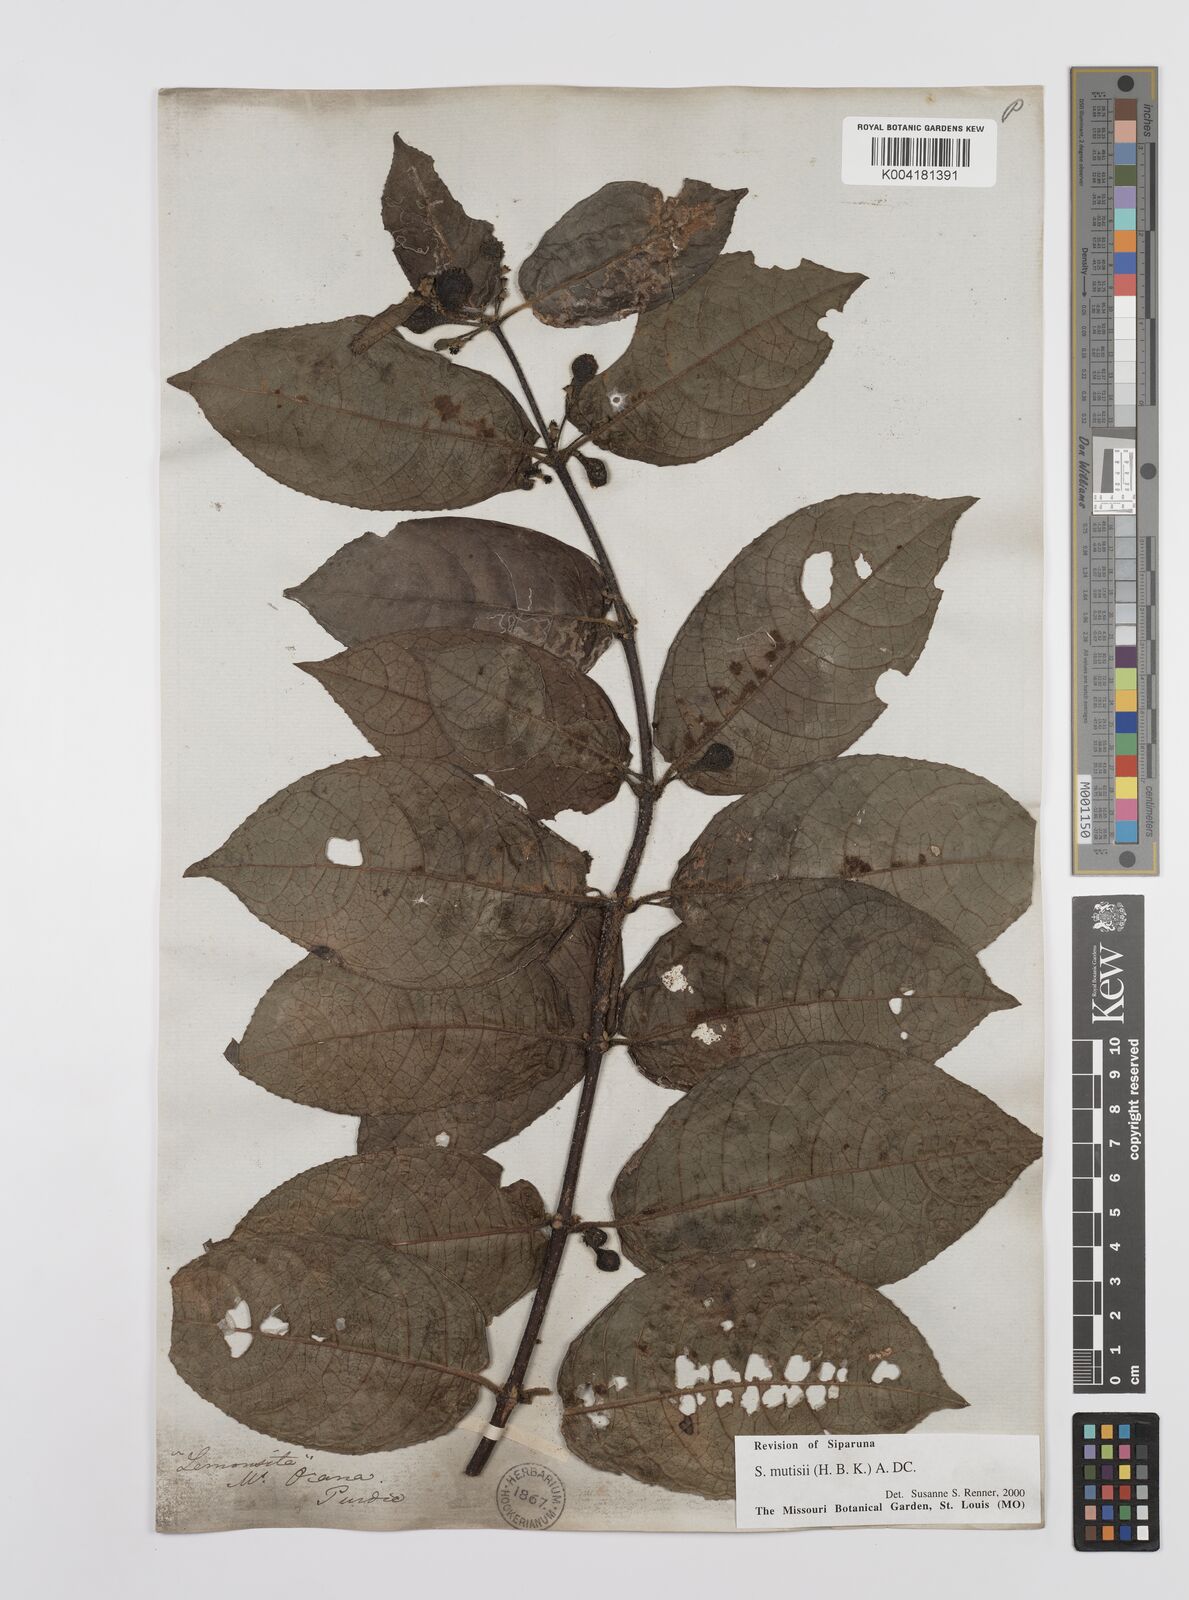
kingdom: Plantae
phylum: Tracheophyta
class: Magnoliopsida
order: Laurales
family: Siparunaceae
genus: Siparuna
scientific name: Siparuna mutisii
